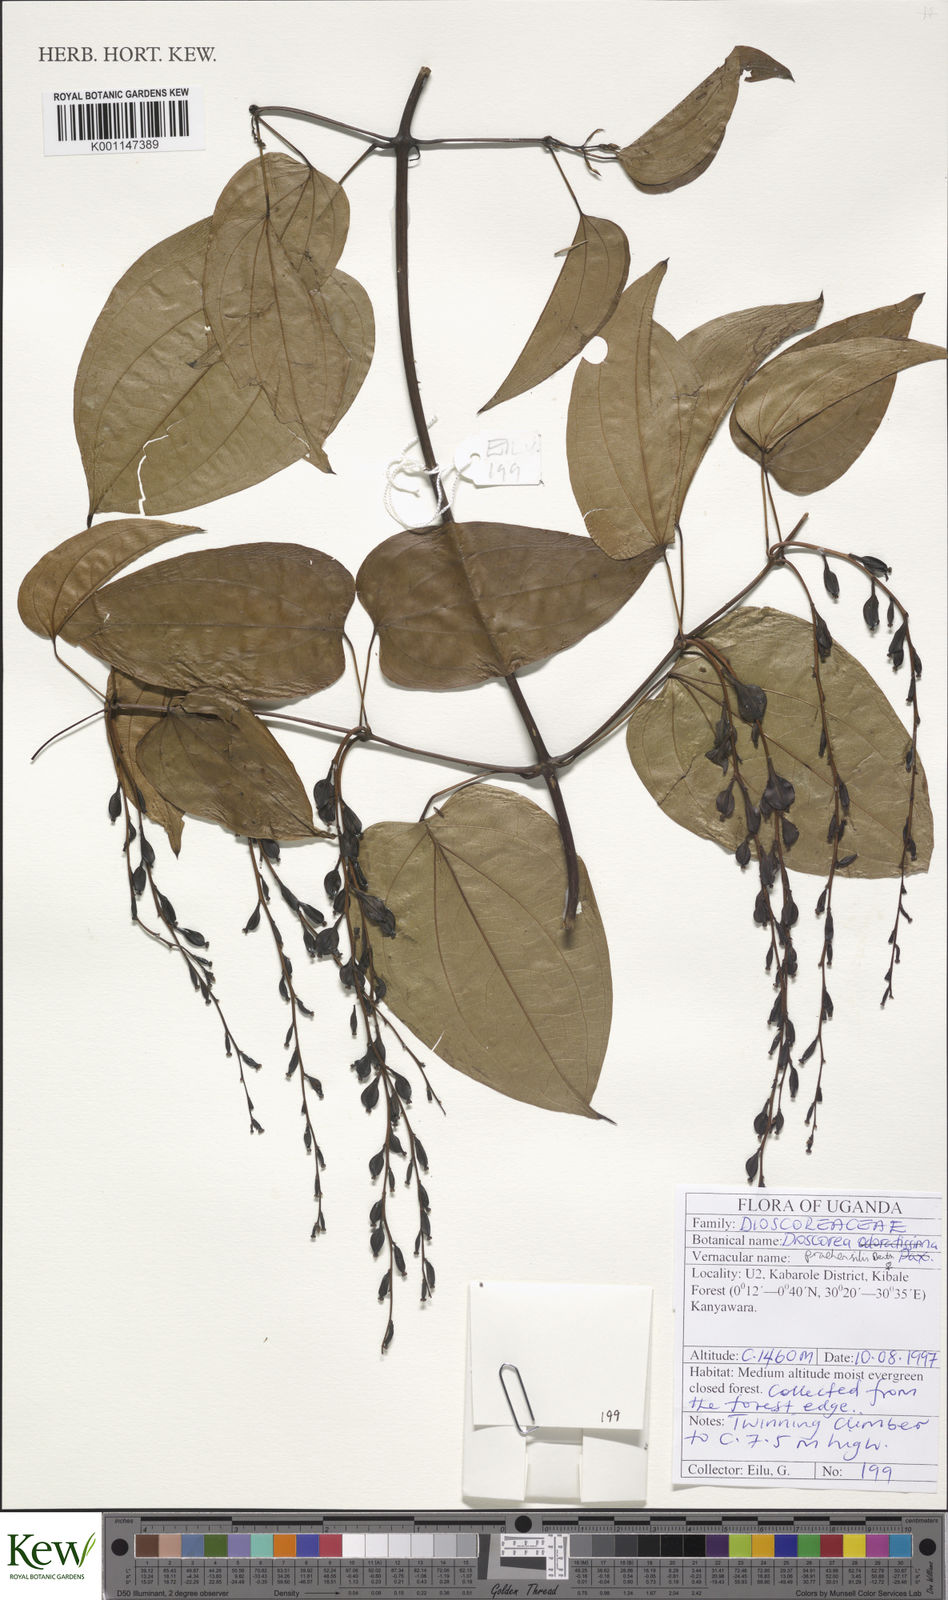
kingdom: Plantae
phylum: Tracheophyta
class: Liliopsida
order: Dioscoreales
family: Dioscoreaceae
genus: Dioscorea
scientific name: Dioscorea praehensilis
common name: Bush yam
